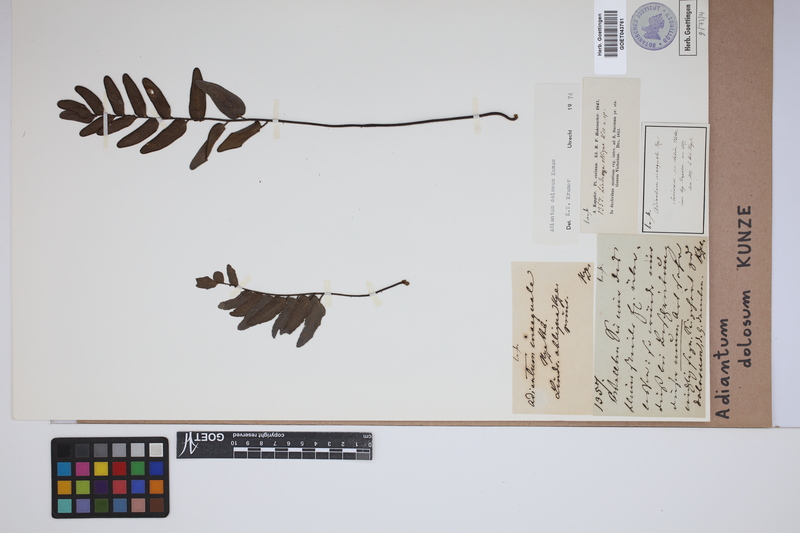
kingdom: Plantae
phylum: Tracheophyta
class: Polypodiopsida
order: Polypodiales
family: Pteridaceae
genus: Adiantum
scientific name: Adiantum dolosum
